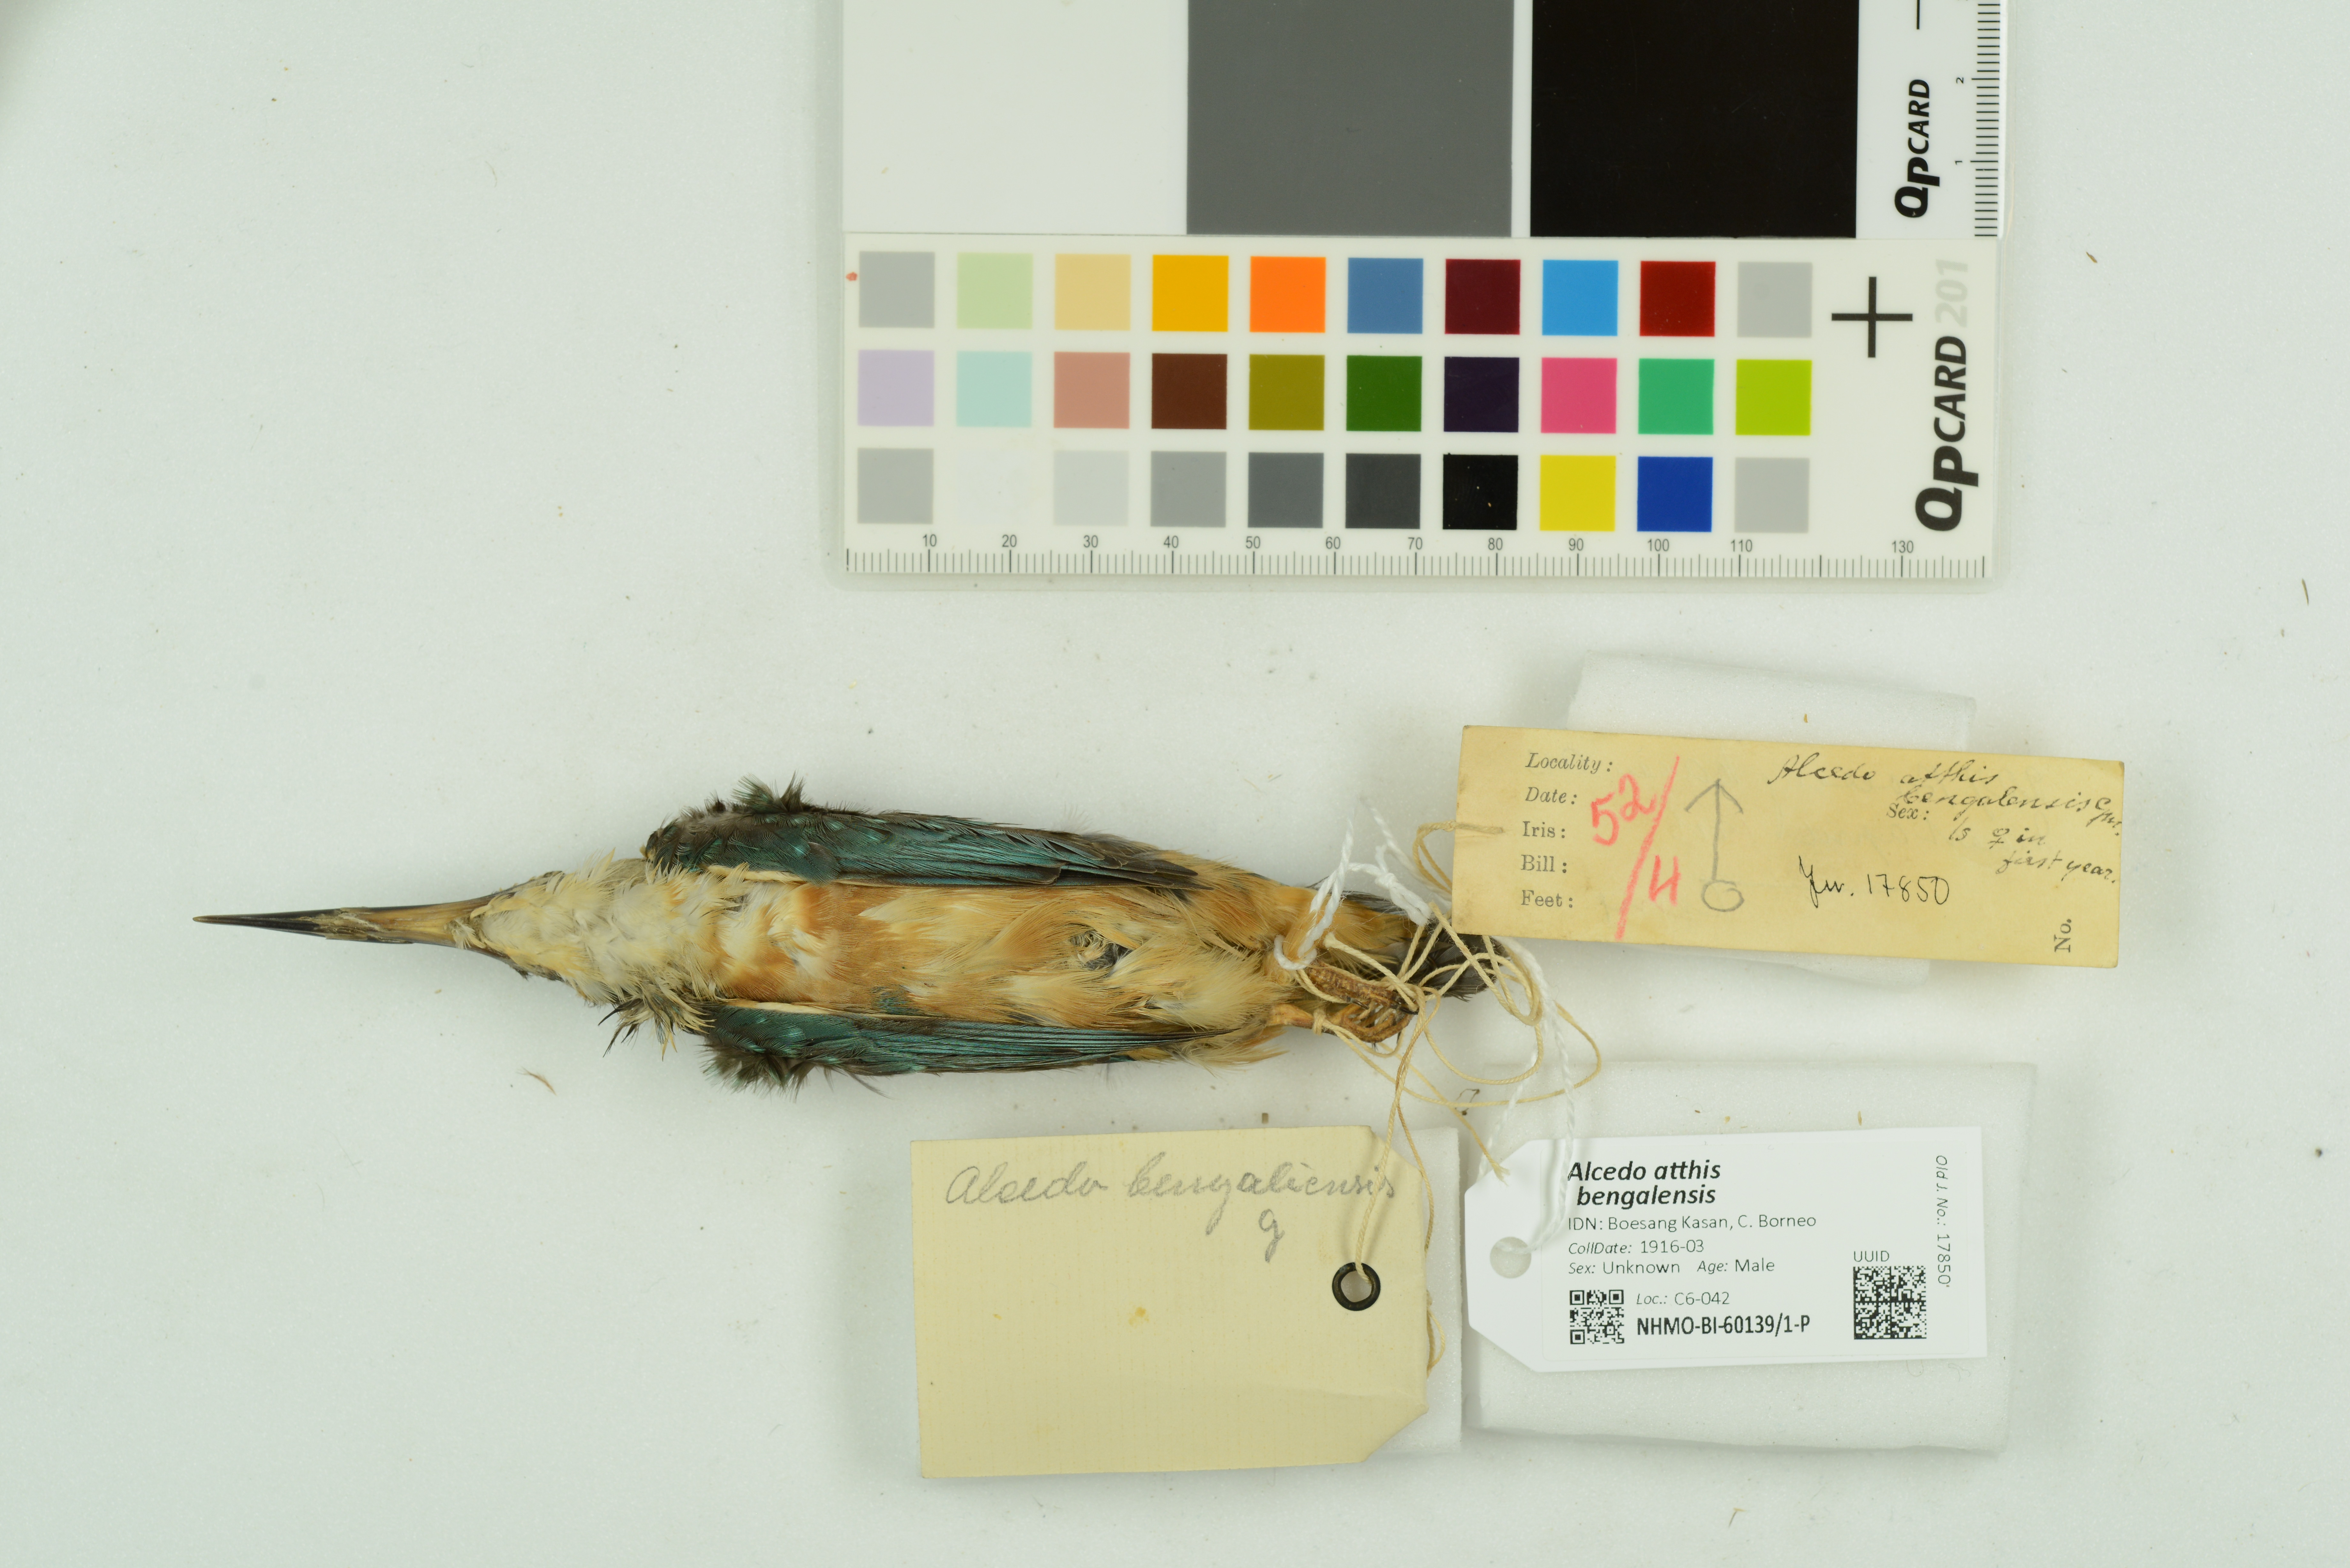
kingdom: Animalia
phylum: Chordata
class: Aves
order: Coraciiformes
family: Alcedinidae
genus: Alcedo
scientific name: Alcedo atthis
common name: Common kingfisher
